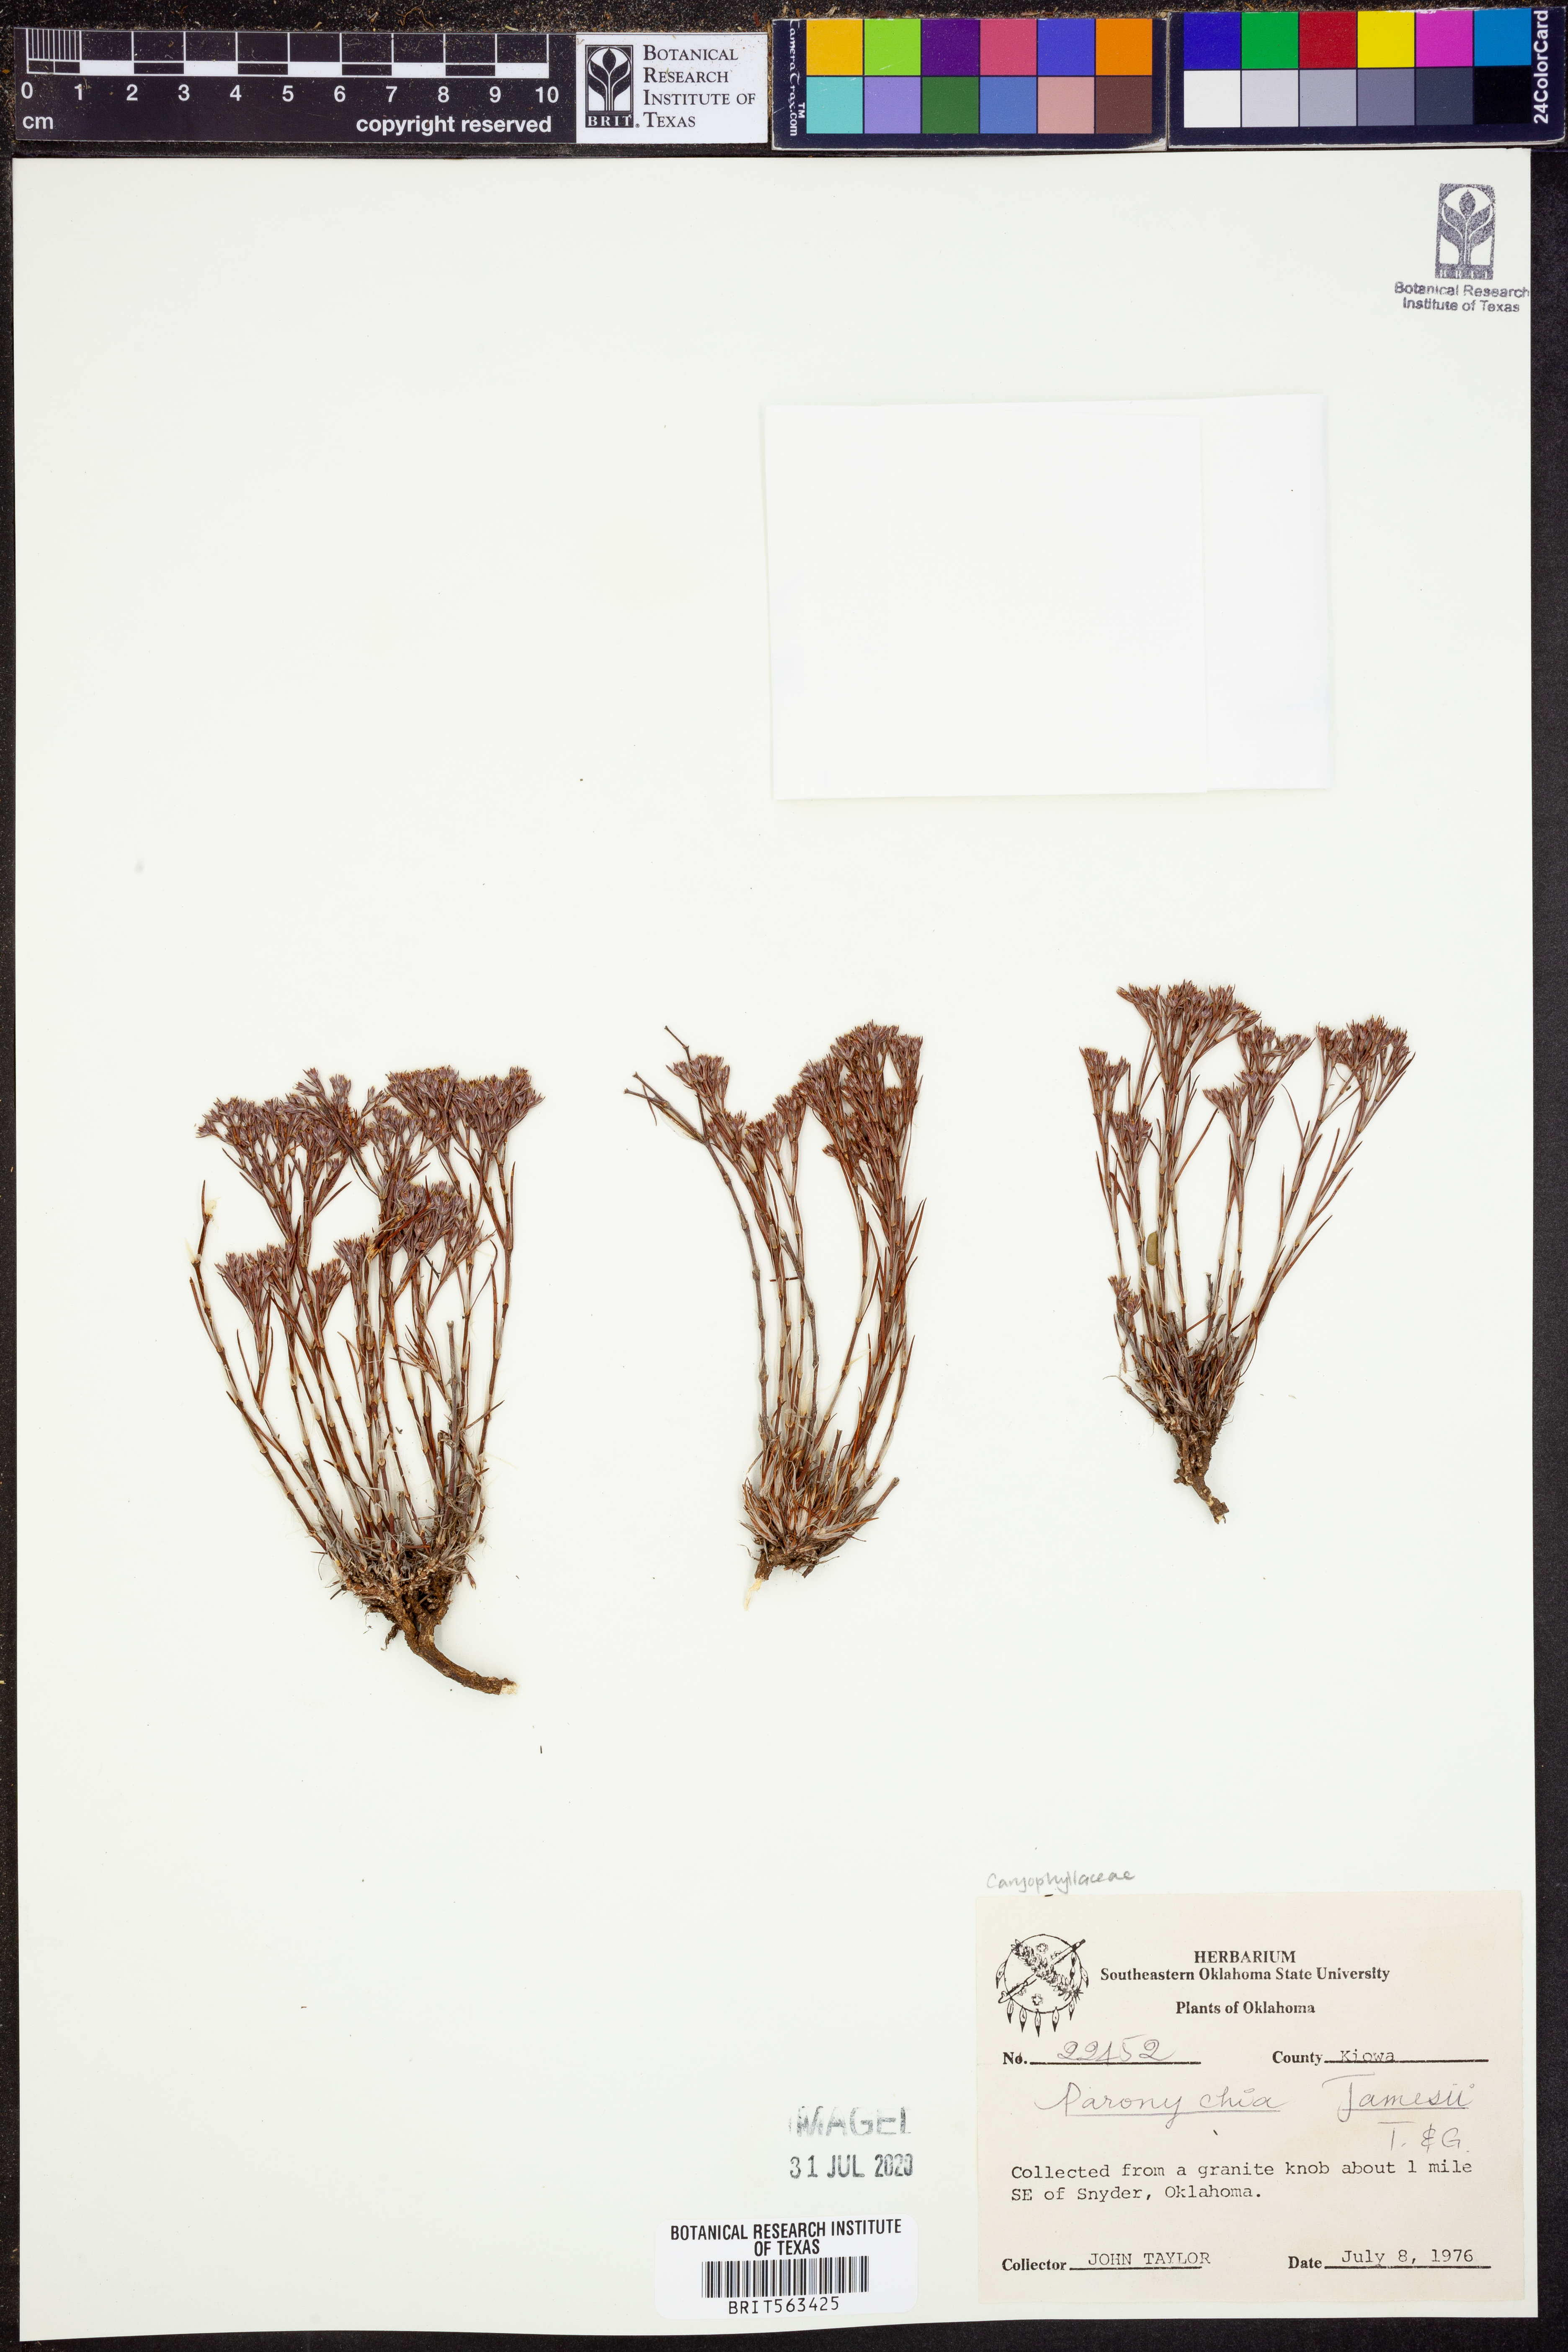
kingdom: Plantae
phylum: Tracheophyta
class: Magnoliopsida
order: Caryophyllales
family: Caryophyllaceae
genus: Paronychia
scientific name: Paronychia jamesii
